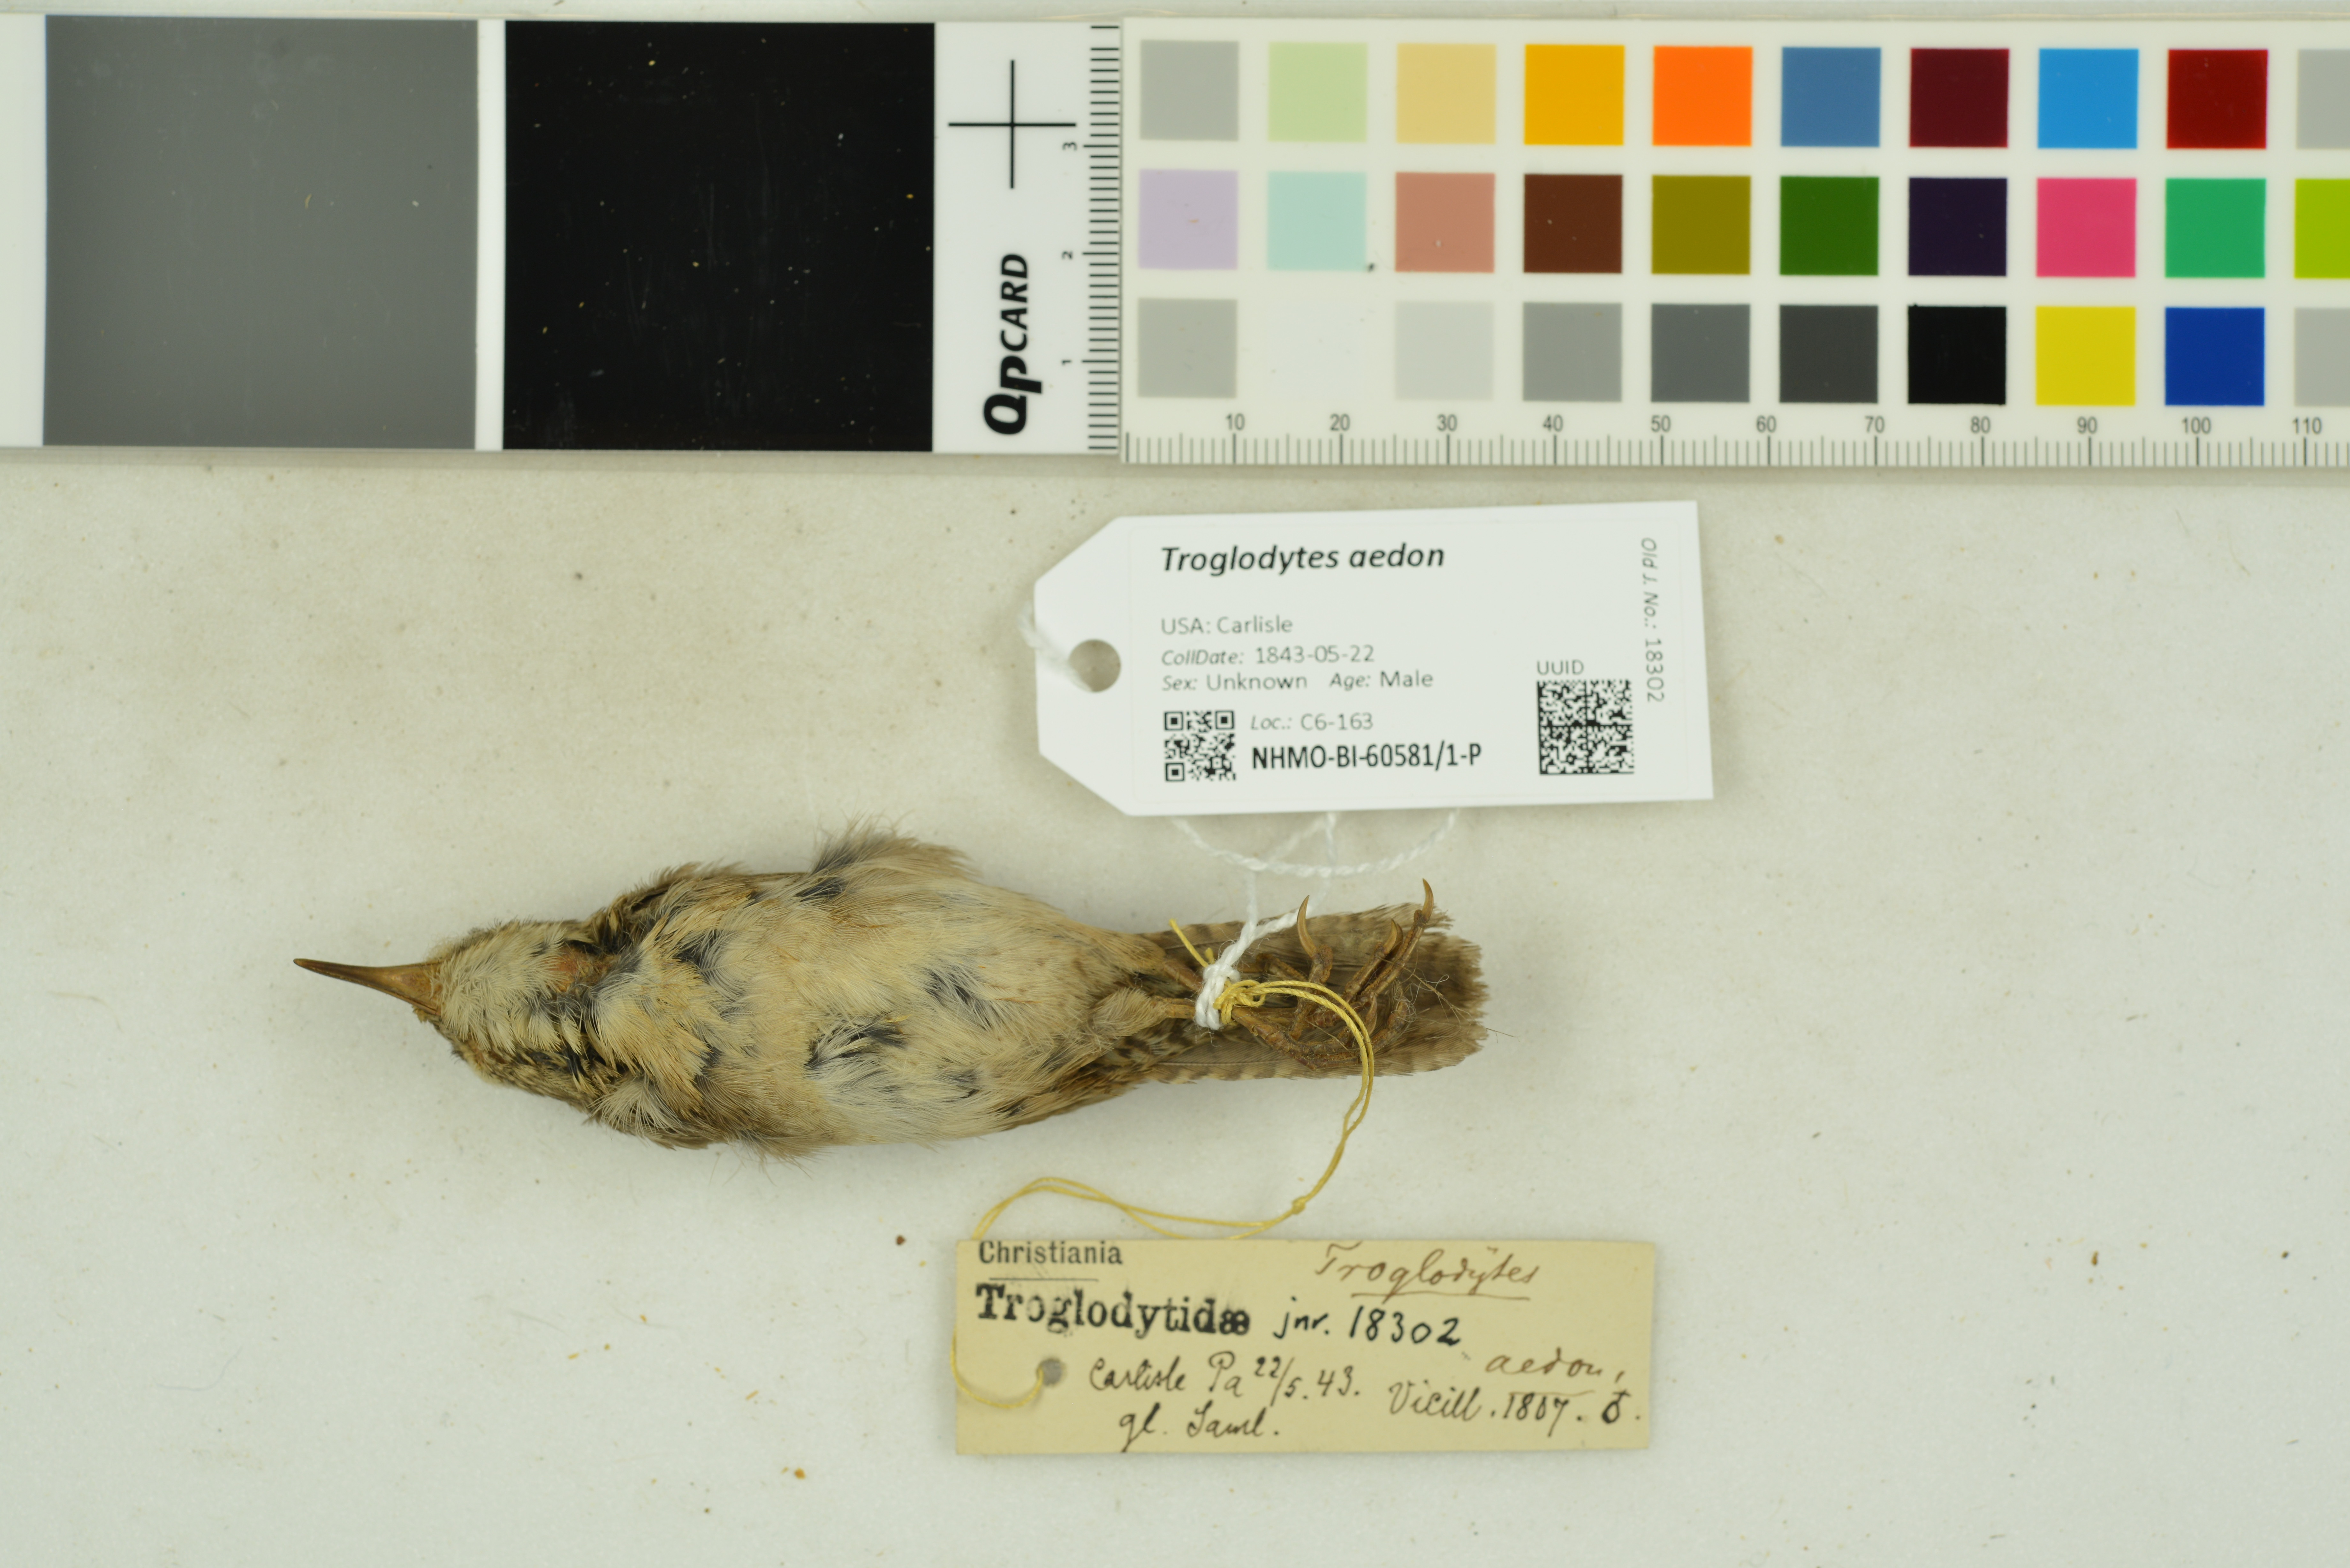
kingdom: Animalia
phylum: Chordata
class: Aves
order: Passeriformes
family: Troglodytidae
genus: Troglodytes
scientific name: Troglodytes aedon
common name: House wren
